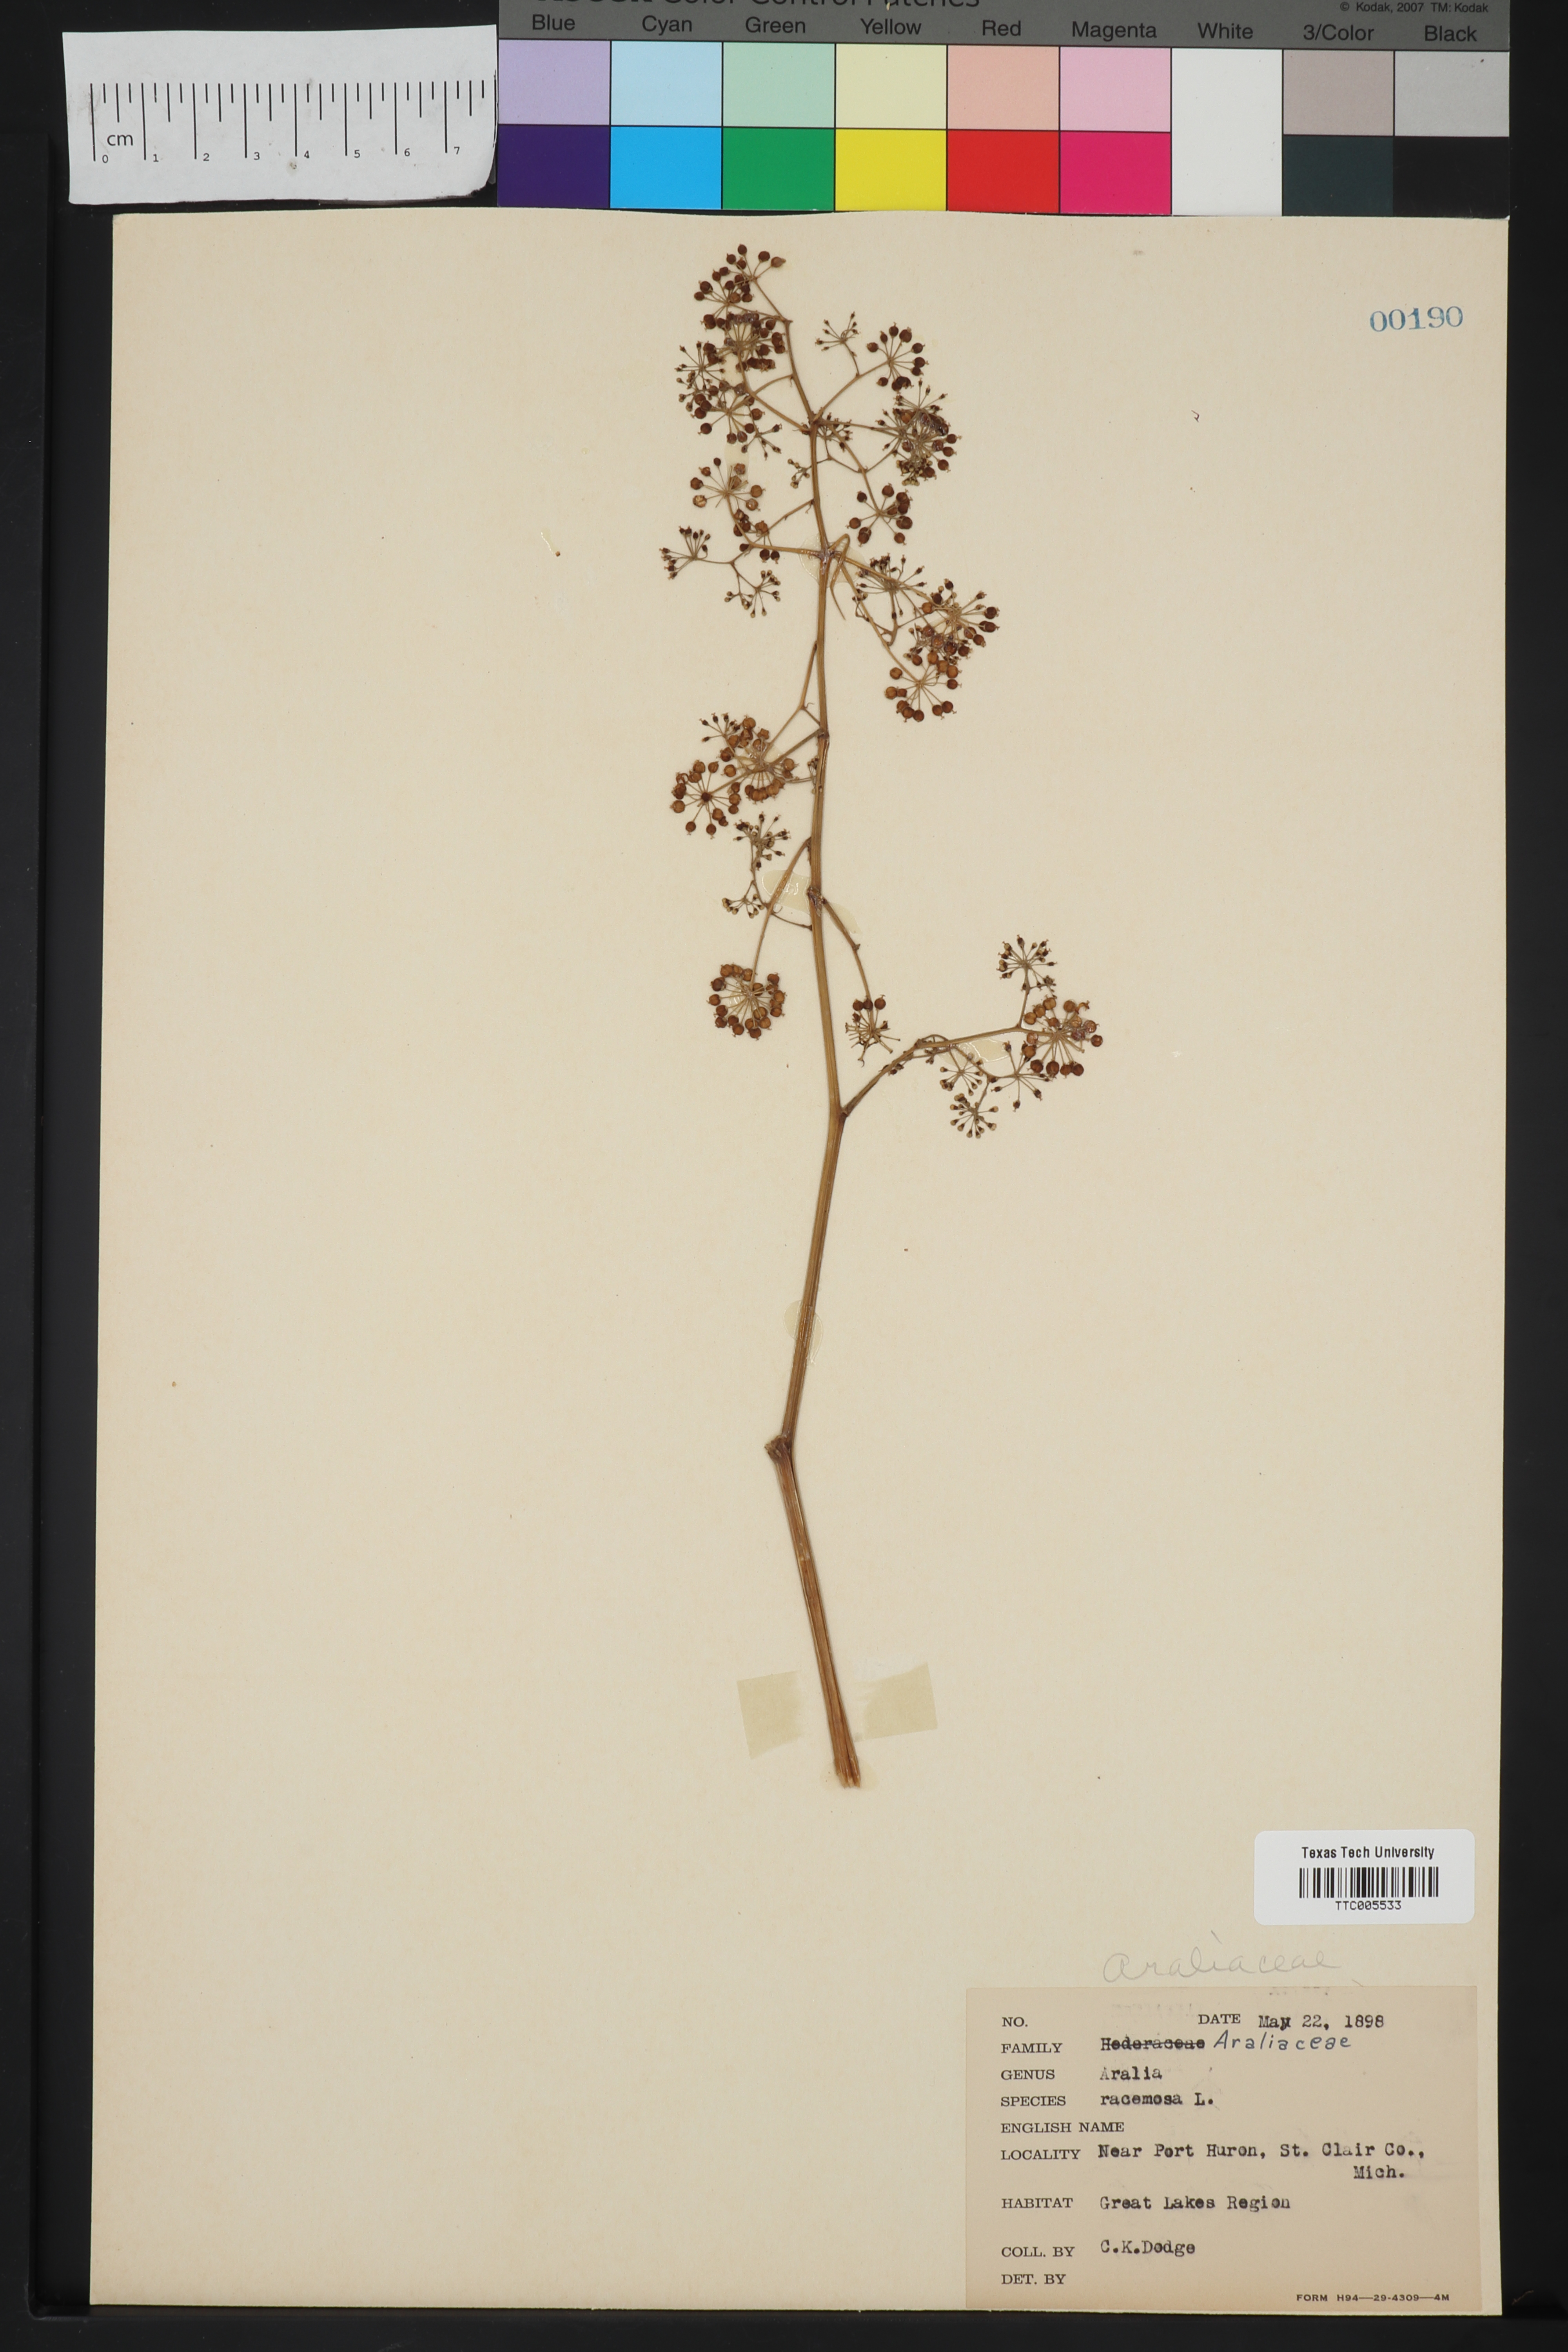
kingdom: Plantae
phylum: Tracheophyta
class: Magnoliopsida
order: Apiales
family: Araliaceae
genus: Aralia
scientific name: Aralia racemosa
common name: American-spikenard
